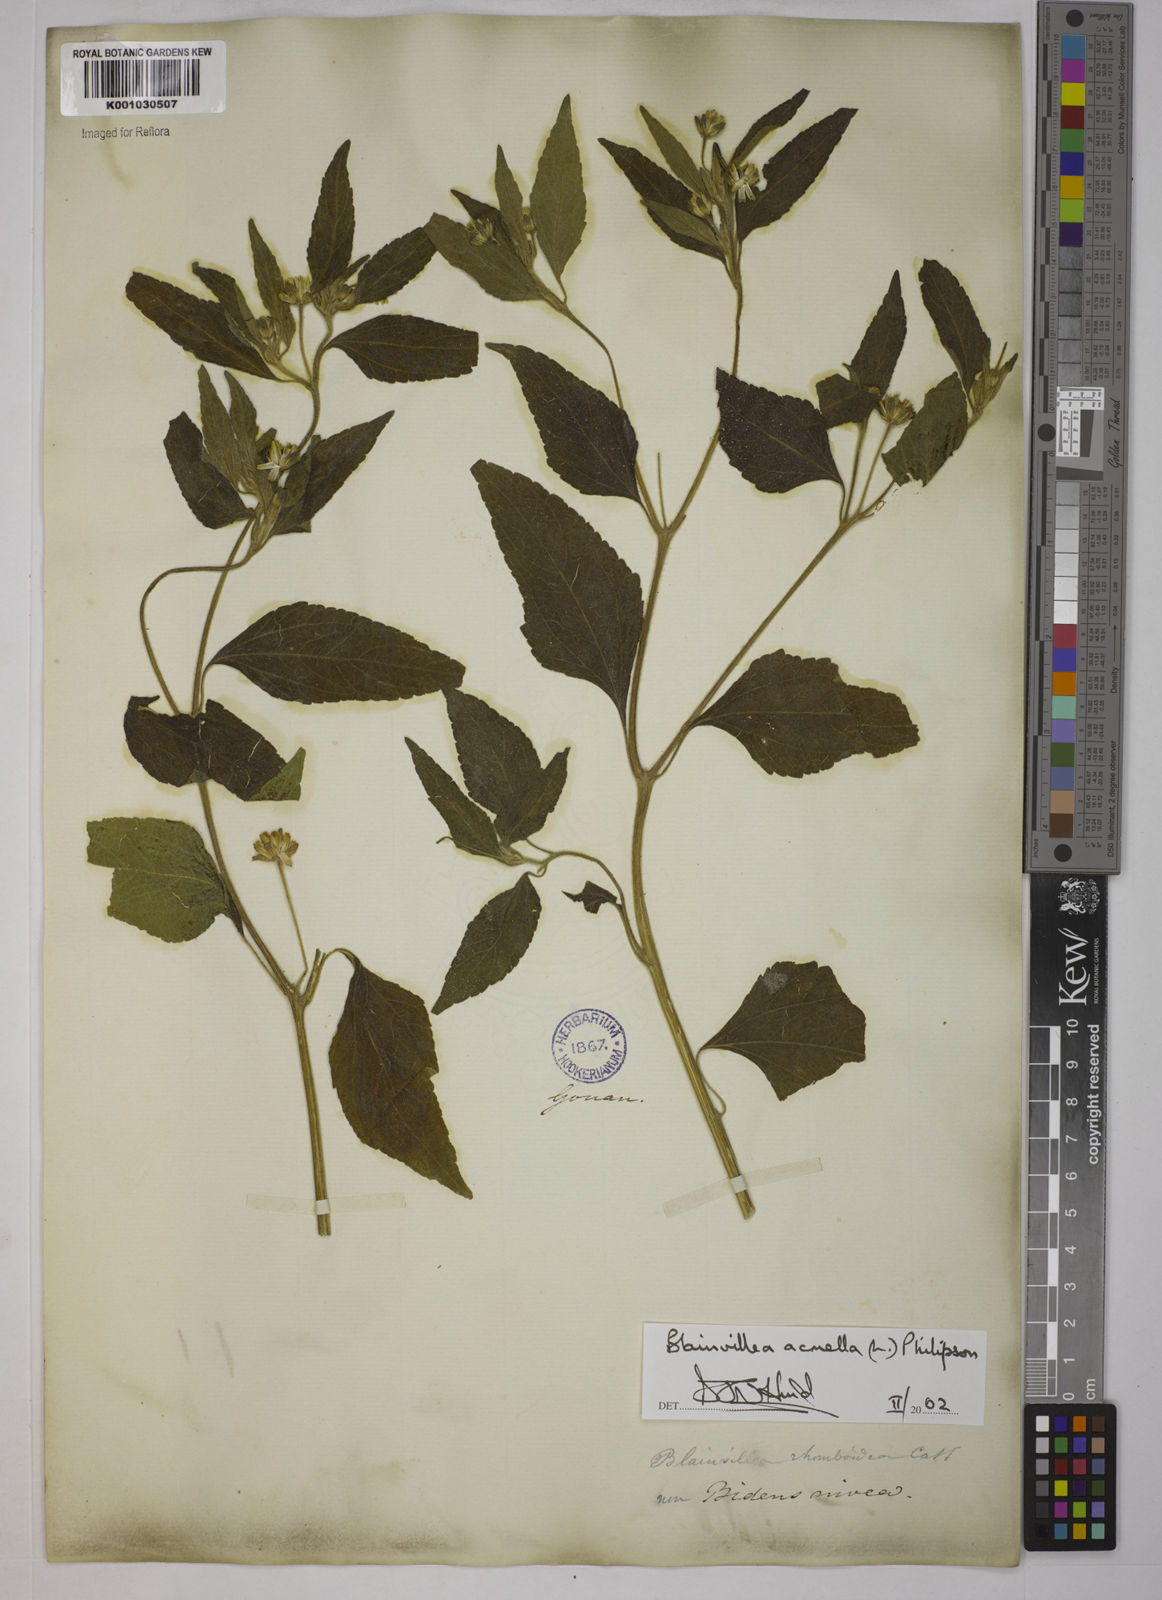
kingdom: Plantae
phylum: Tracheophyta
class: Magnoliopsida
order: Asterales
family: Asteraceae
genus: Blainvillea
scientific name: Blainvillea acmella
